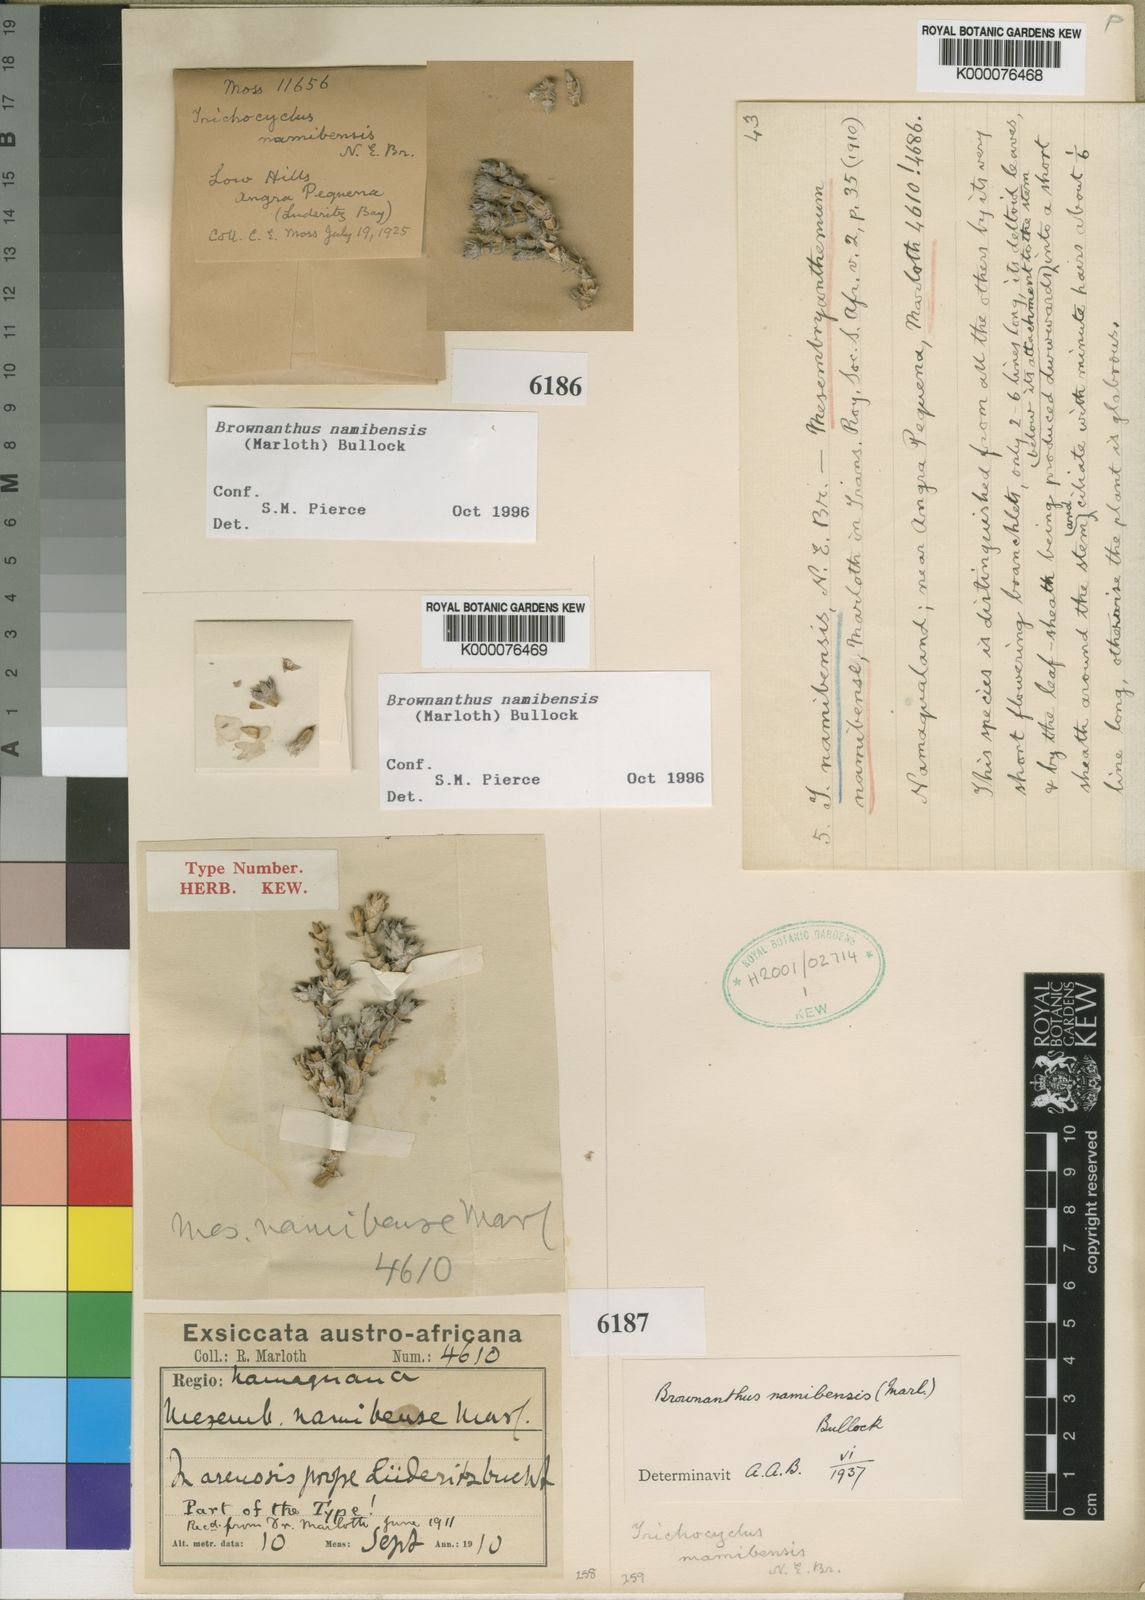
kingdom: Plantae
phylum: Tracheophyta
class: Magnoliopsida
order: Caryophyllales
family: Aizoaceae
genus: Mesembryanthemum
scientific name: Mesembryanthemum namibense
